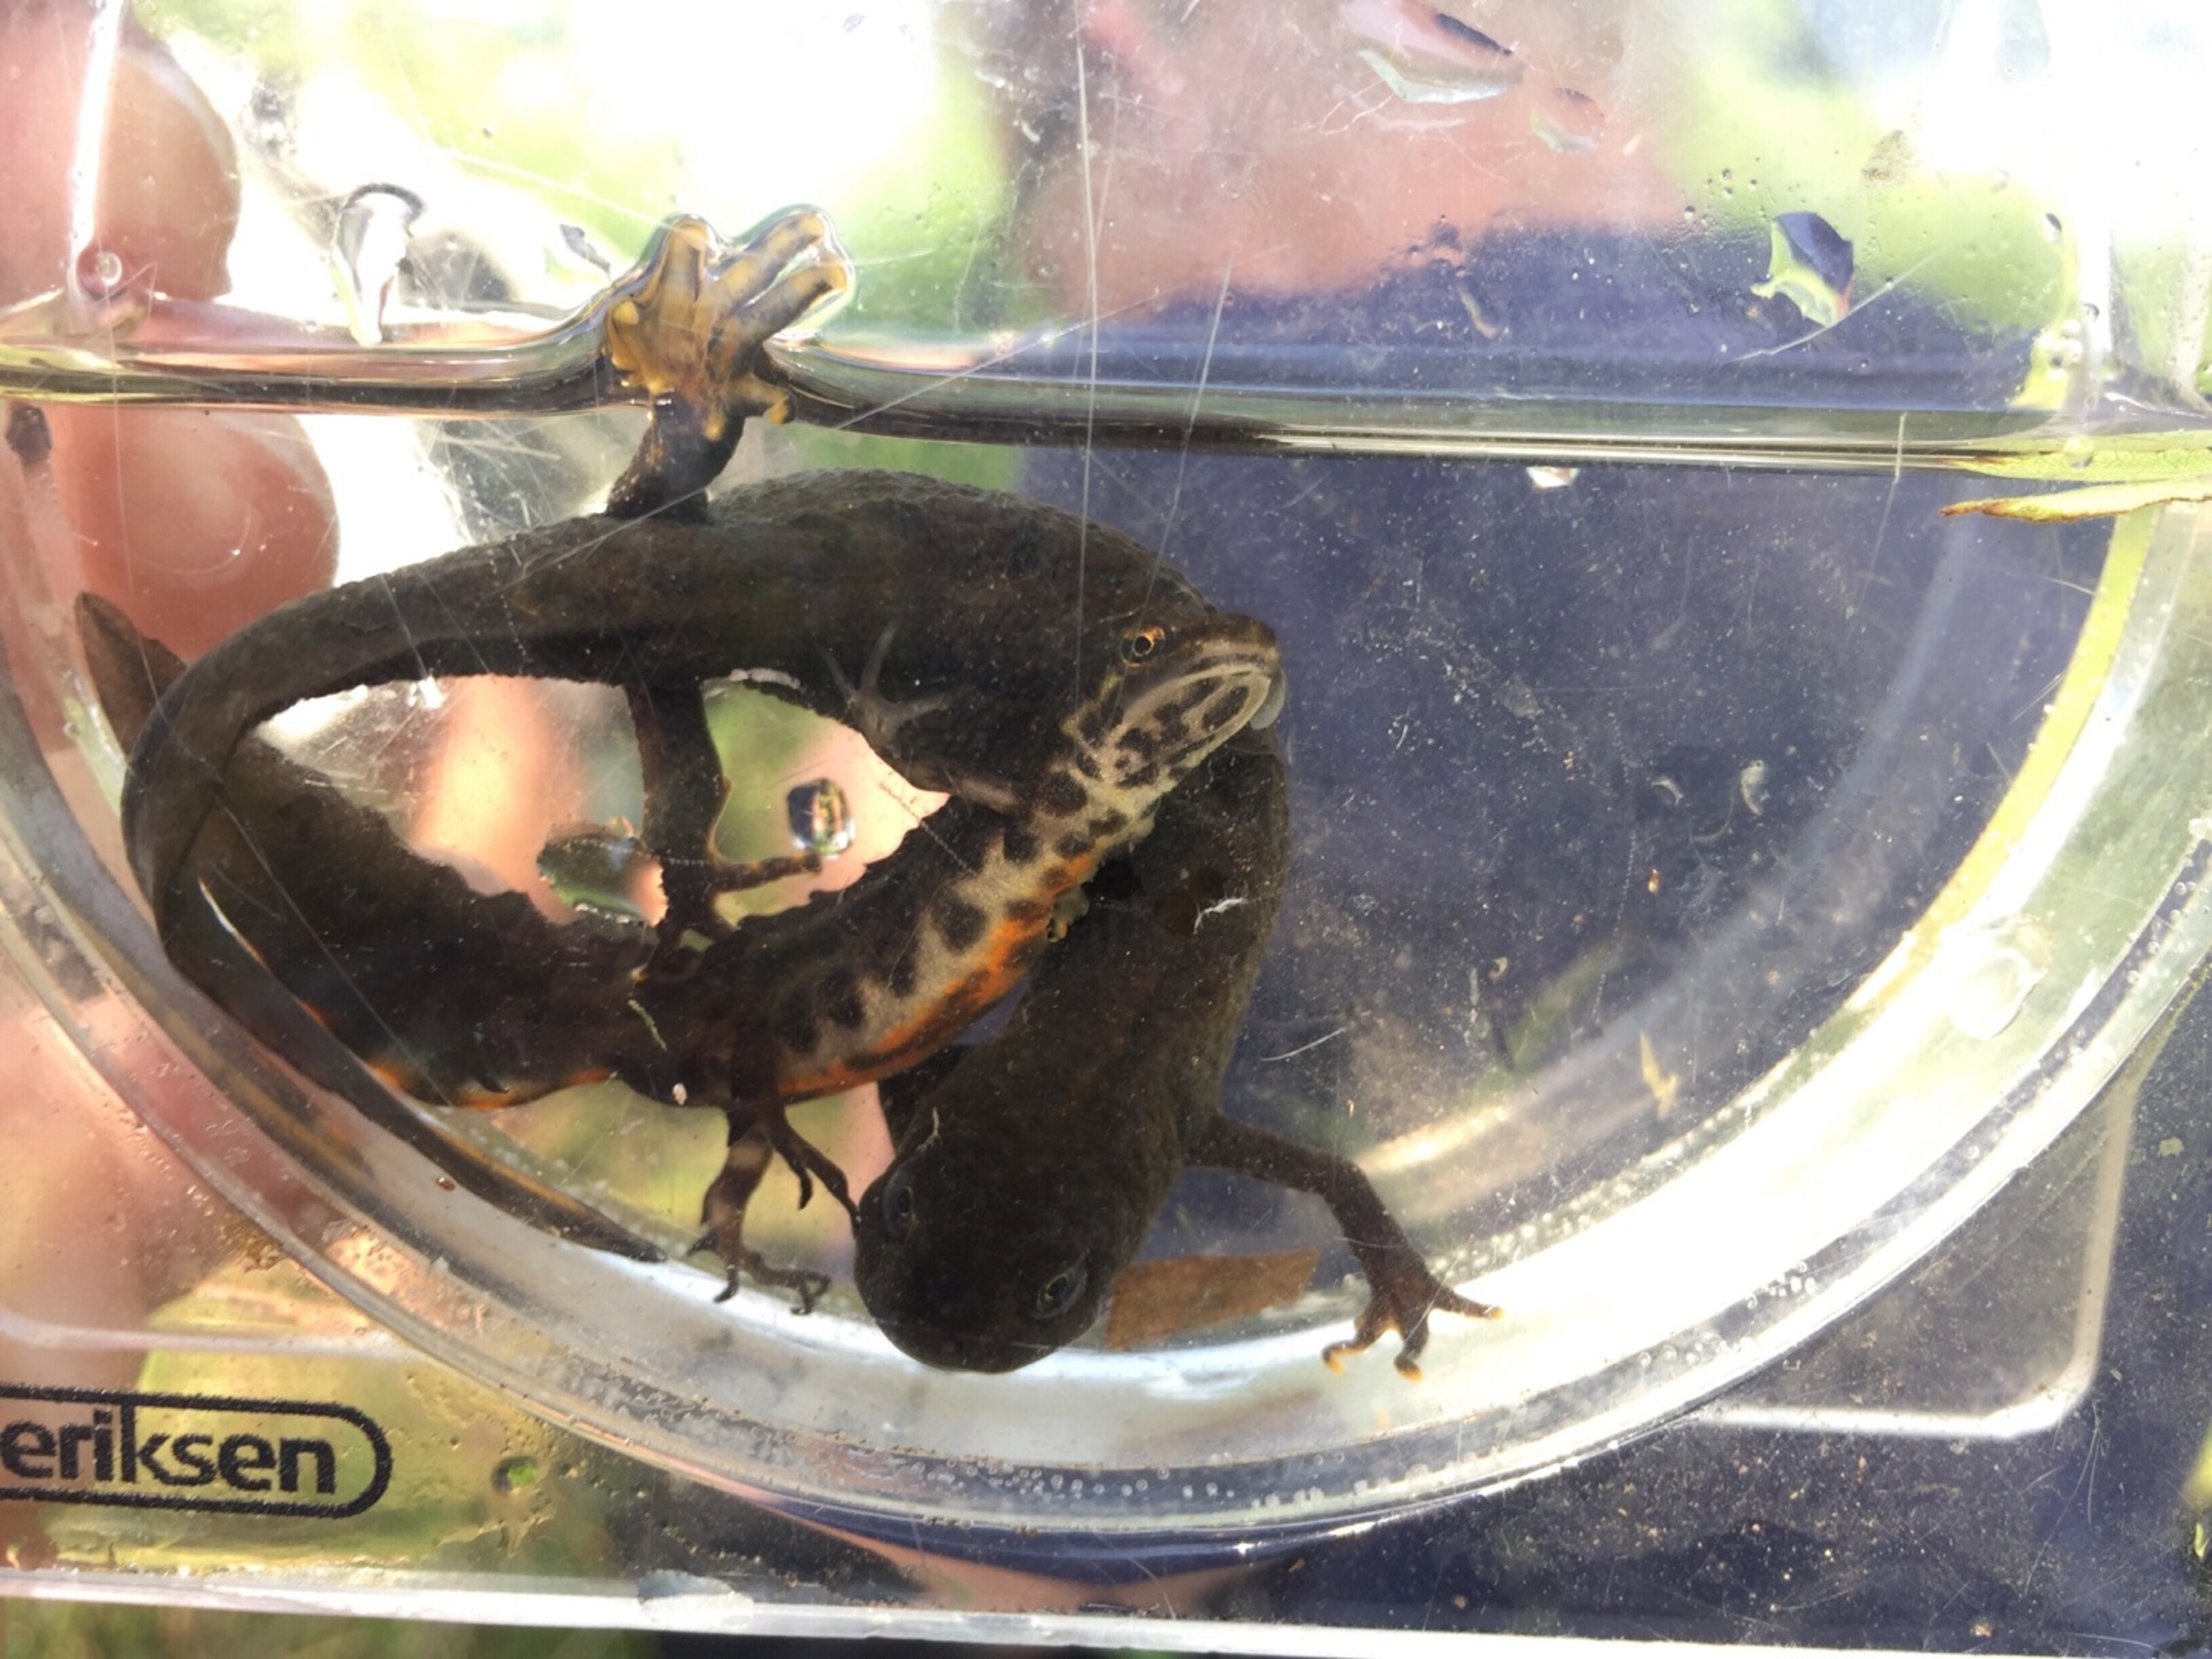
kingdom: Animalia
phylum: Chordata
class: Amphibia
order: Caudata
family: Salamandridae
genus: Triturus
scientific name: Triturus cristatus
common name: Stor vandsalamander
